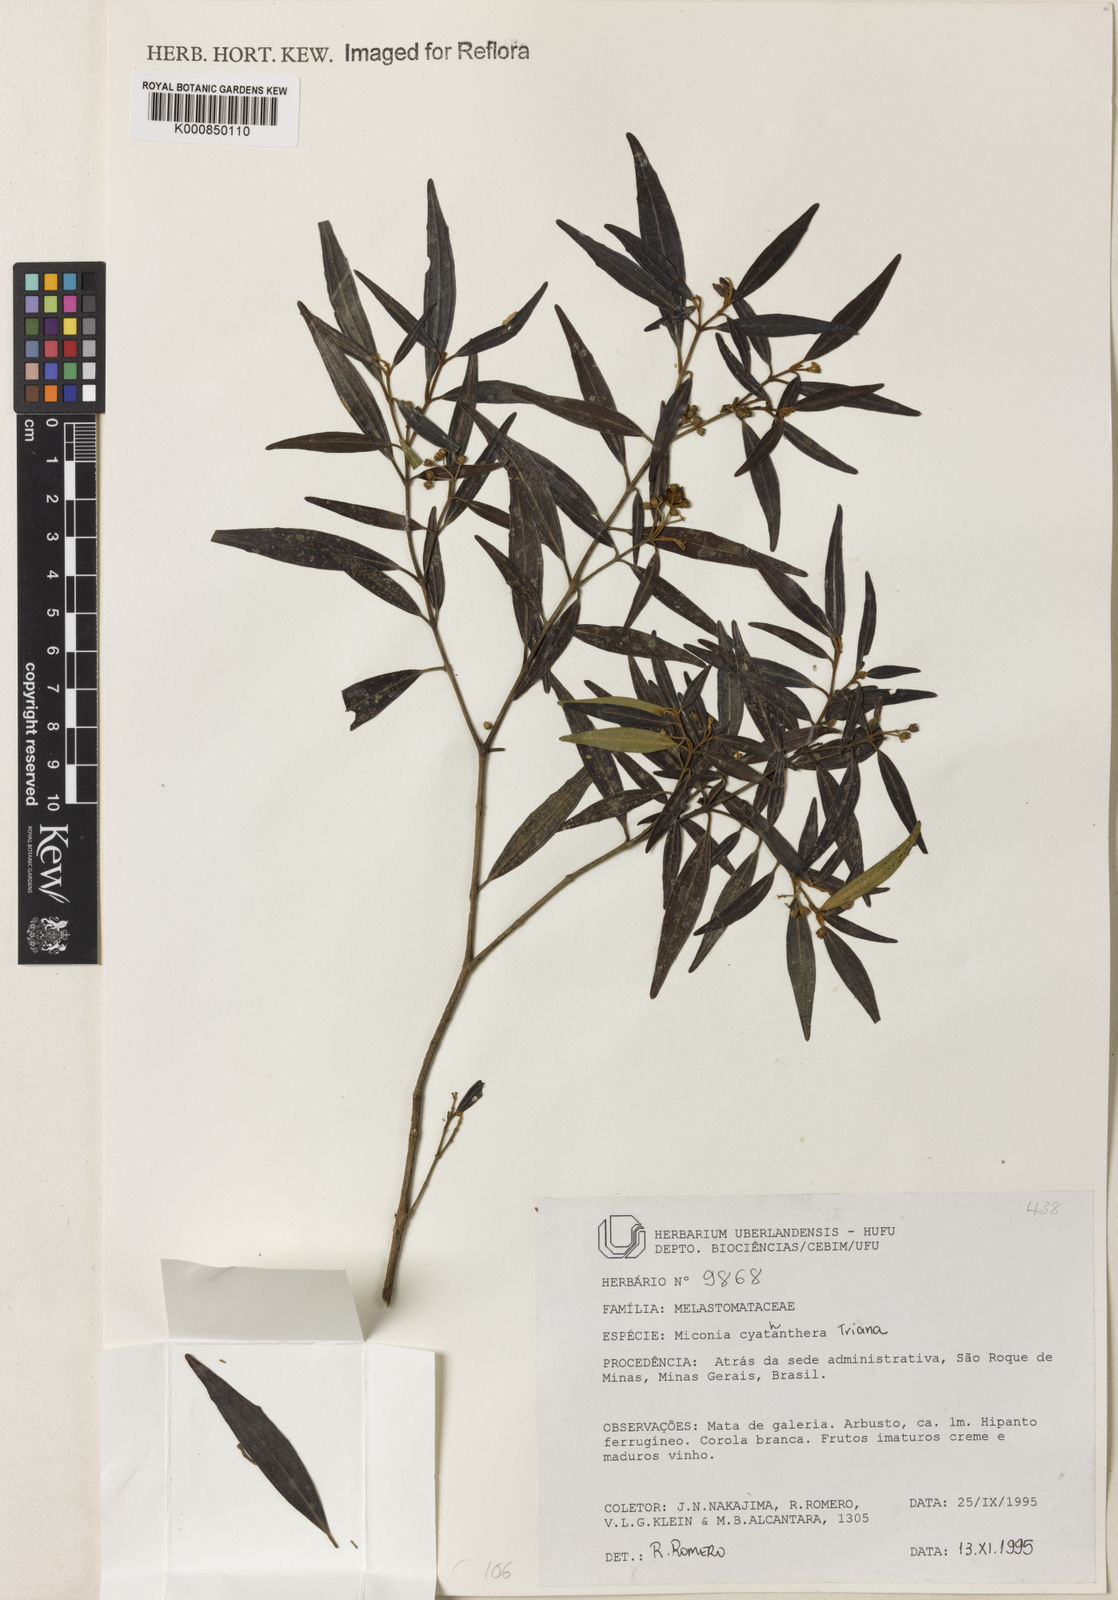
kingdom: Plantae
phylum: Tracheophyta
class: Magnoliopsida
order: Myrtales
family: Melastomataceae
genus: Miconia
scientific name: Miconia cyathanthera
